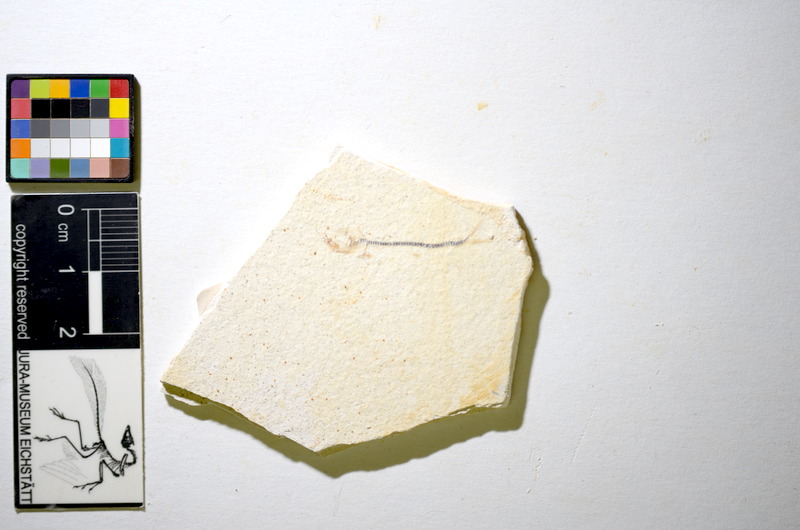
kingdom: Animalia
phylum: Chordata
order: Salmoniformes
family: Orthogonikleithridae
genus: Orthogonikleithrus
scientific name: Orthogonikleithrus hoelli
